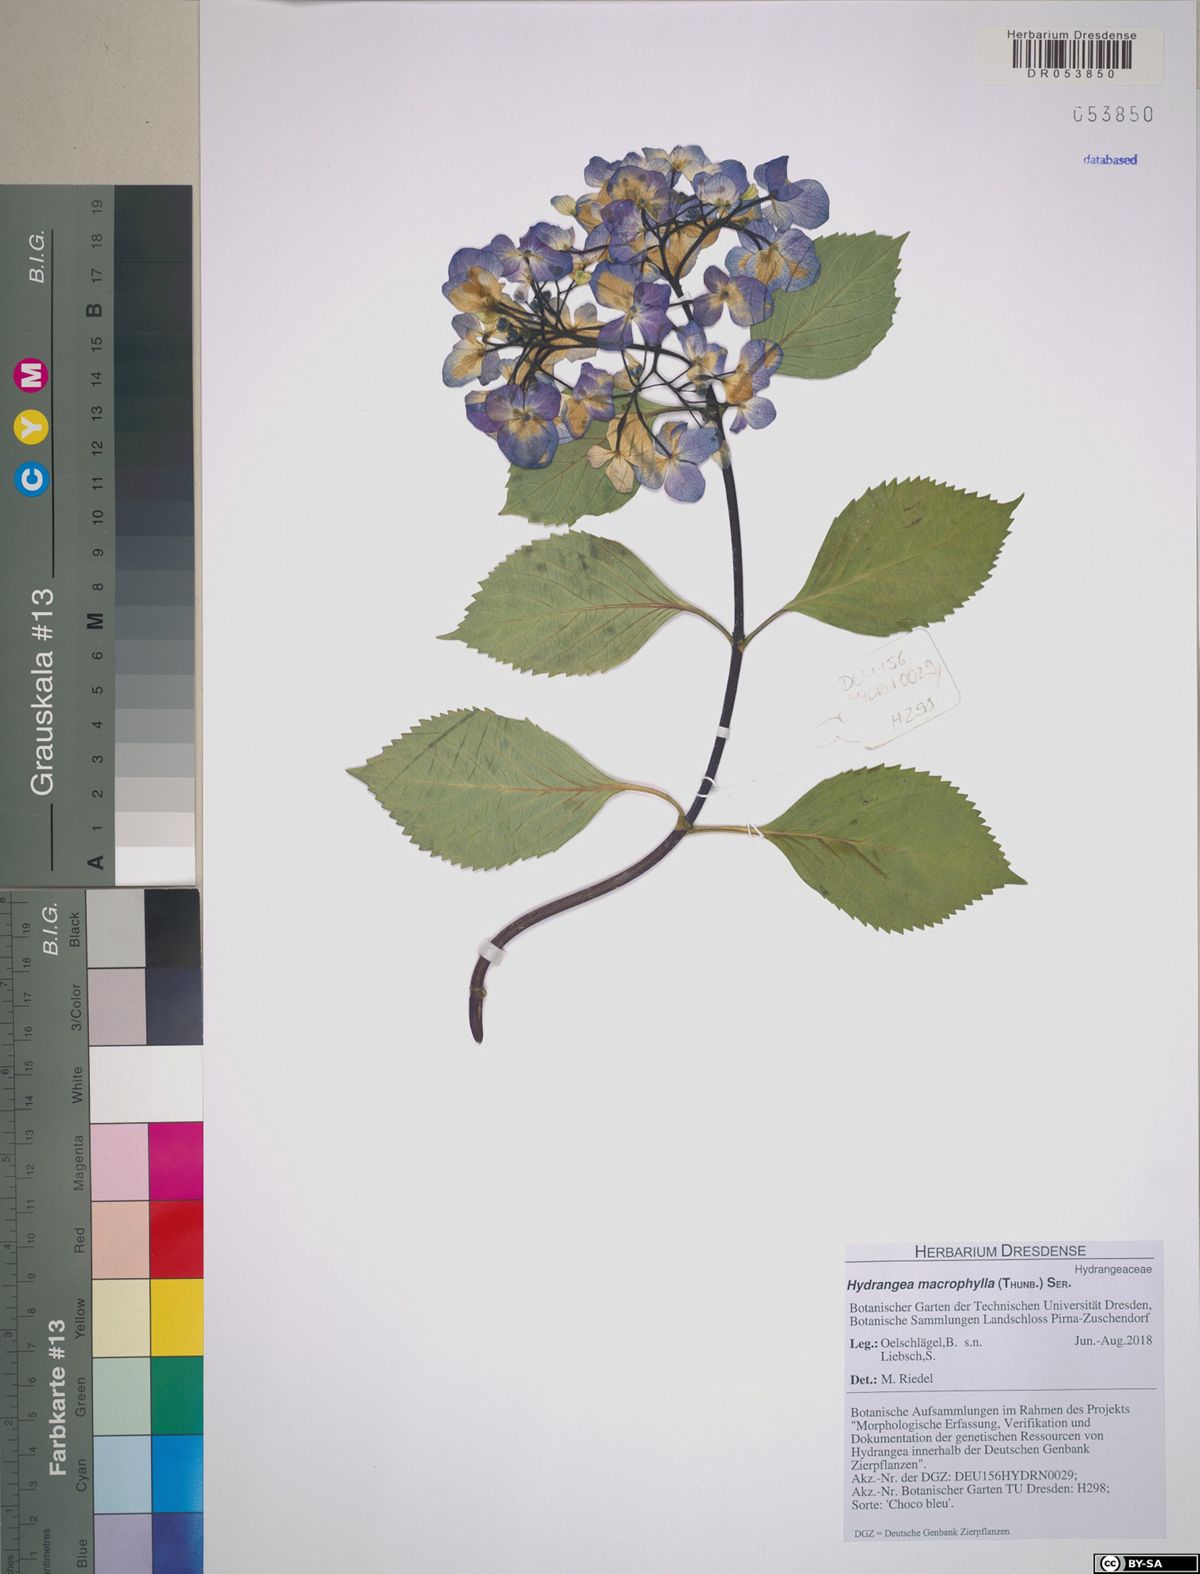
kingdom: Plantae
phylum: Tracheophyta
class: Magnoliopsida
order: Cornales
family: Hydrangeaceae
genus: Hydrangea
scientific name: Hydrangea macrophylla
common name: Hydrangea
